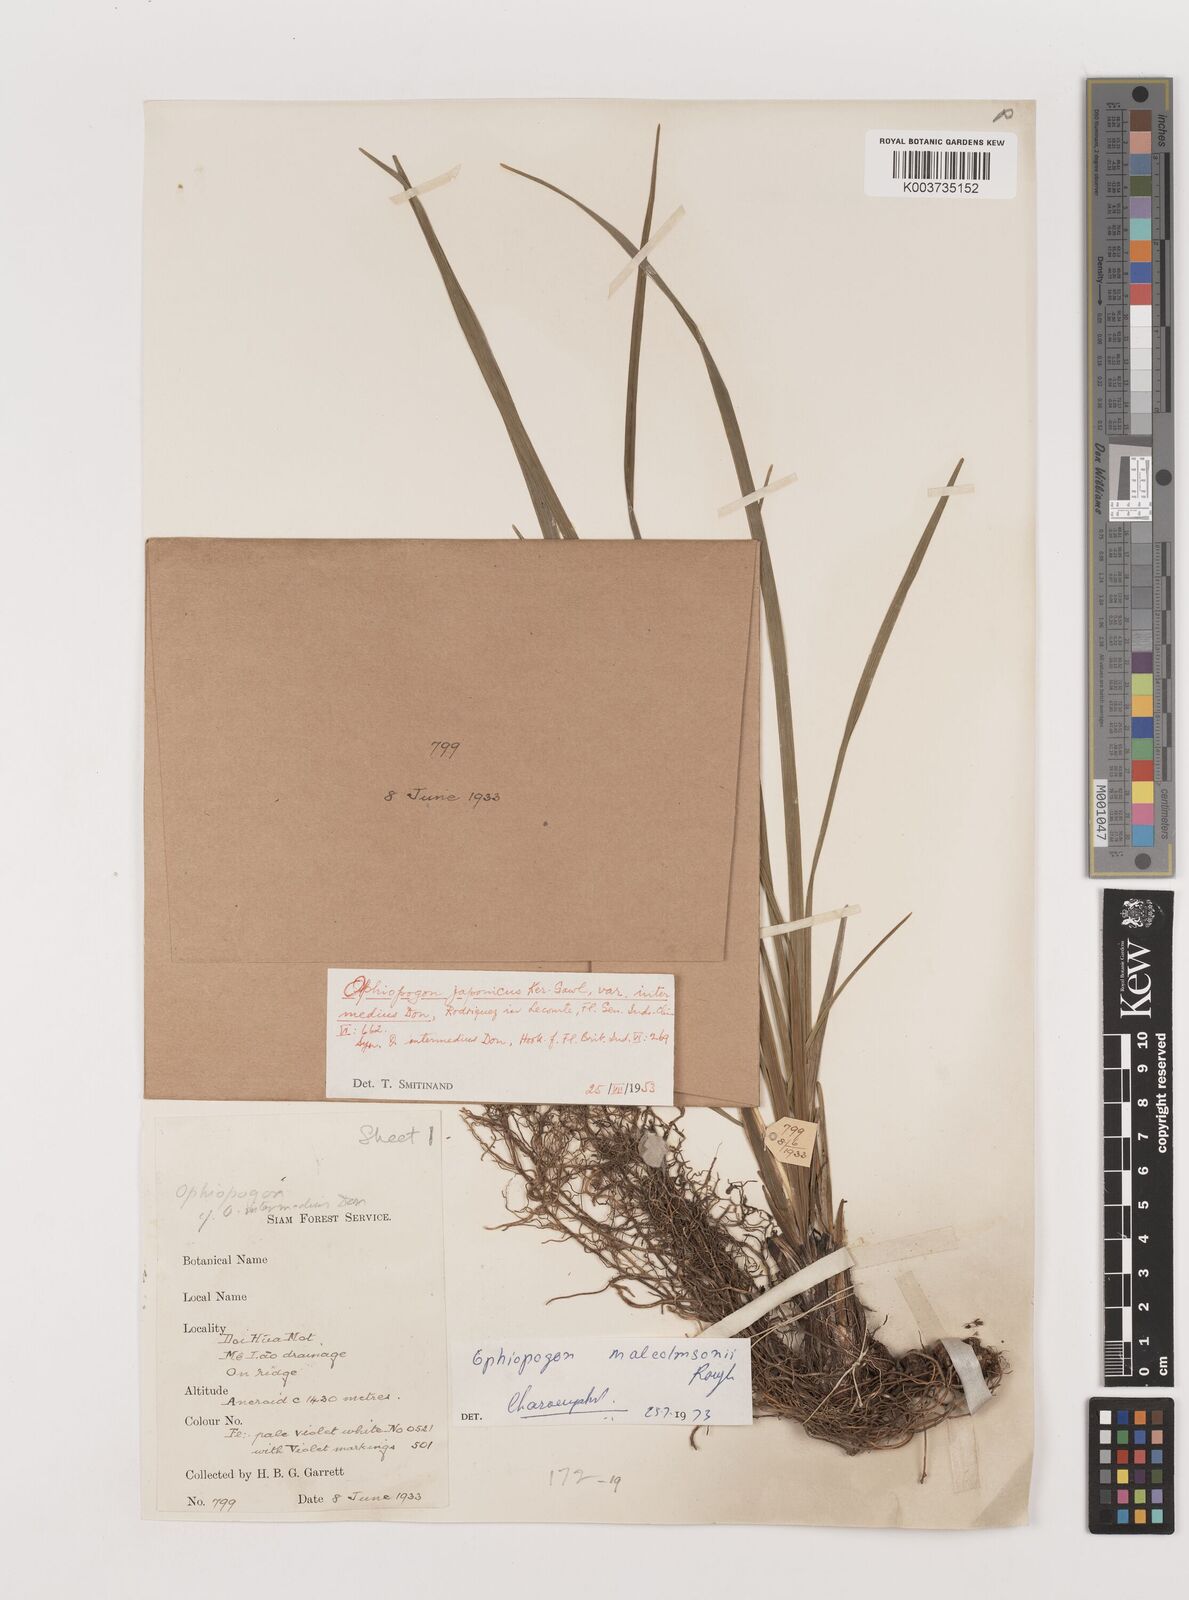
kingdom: Plantae
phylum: Tracheophyta
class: Liliopsida
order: Asparagales
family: Asparagaceae
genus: Ophiopogon
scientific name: Ophiopogon malcolmsonii
